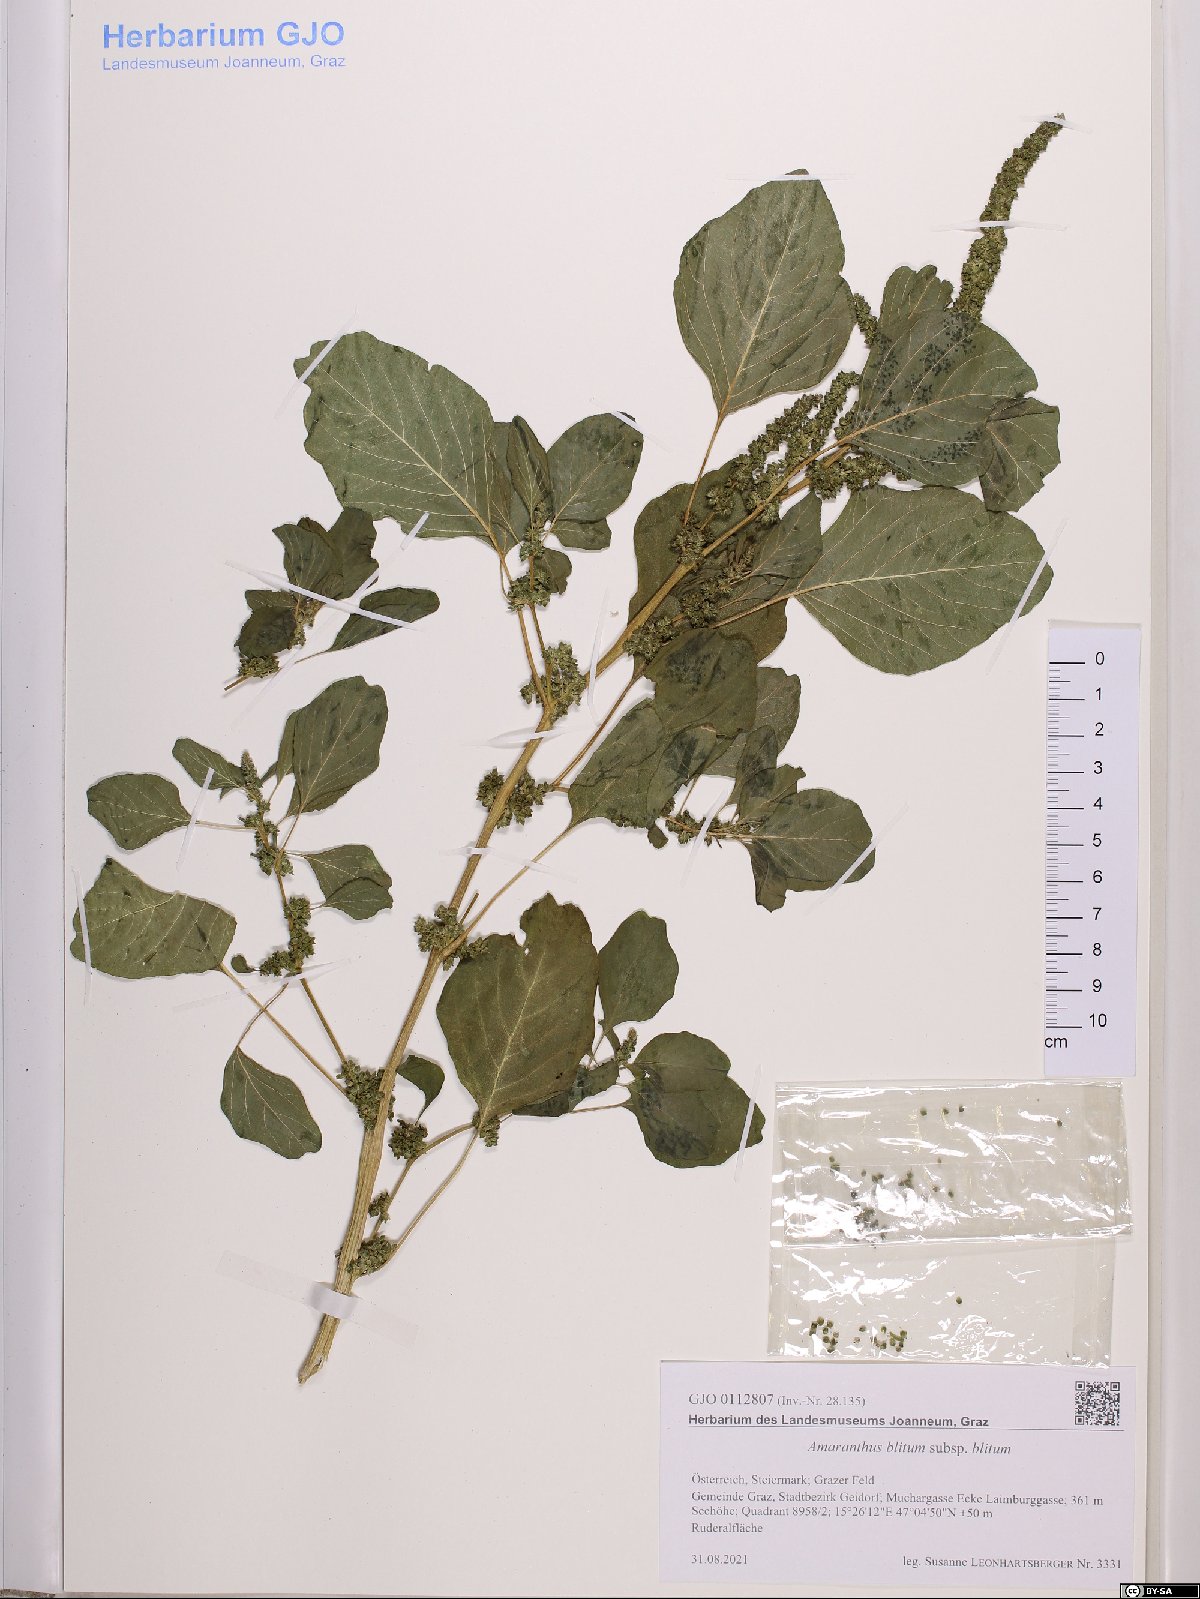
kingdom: Plantae
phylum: Tracheophyta
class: Magnoliopsida
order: Caryophyllales
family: Amaranthaceae
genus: Amaranthus
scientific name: Amaranthus blitum
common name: Purple amaranth
